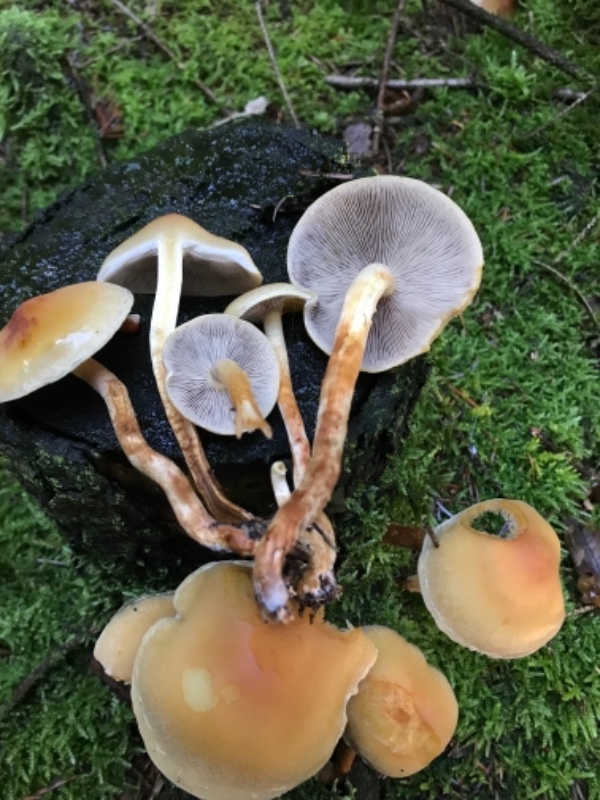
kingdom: Fungi
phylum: Basidiomycota
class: Agaricomycetes
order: Agaricales
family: Strophariaceae
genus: Hypholoma
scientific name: Hypholoma capnoides
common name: gran-svovlhat
